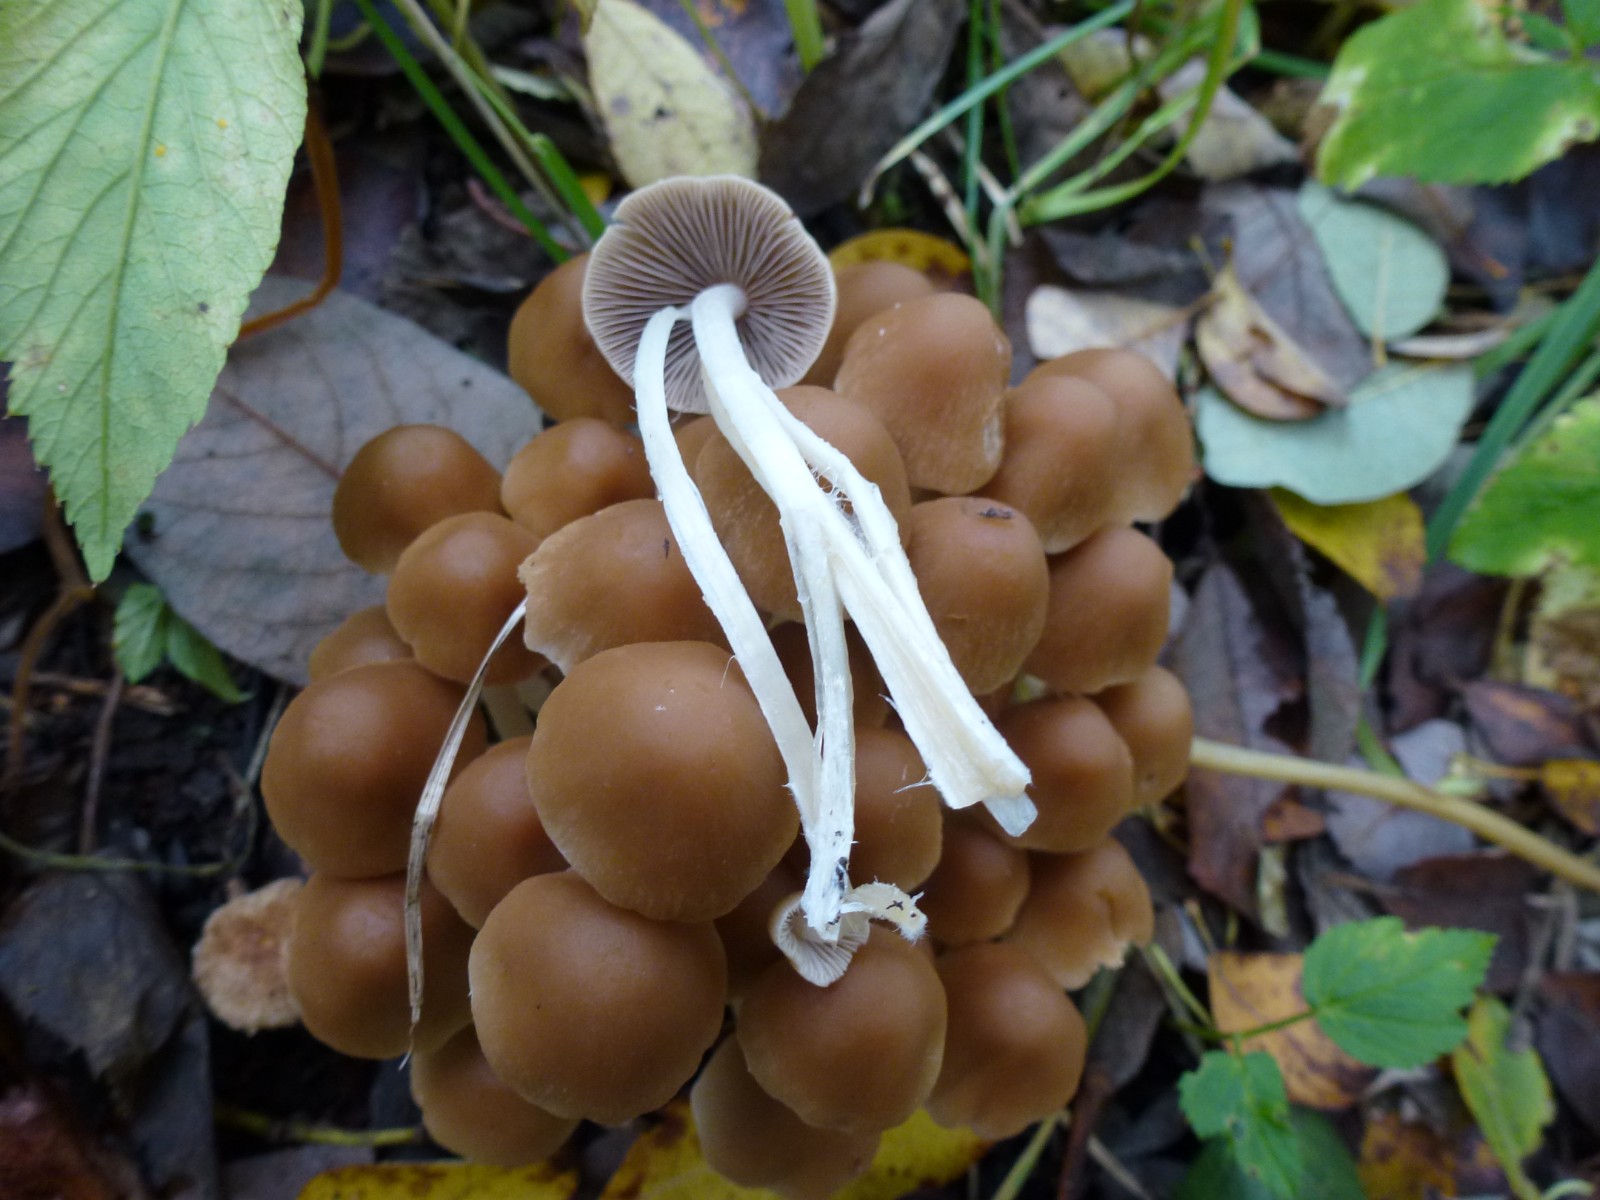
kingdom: Fungi
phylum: Basidiomycota
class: Agaricomycetes
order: Agaricales
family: Psathyrellaceae
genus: Britzelmayria
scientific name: Britzelmayria multipedata
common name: knippe-mørkhat
